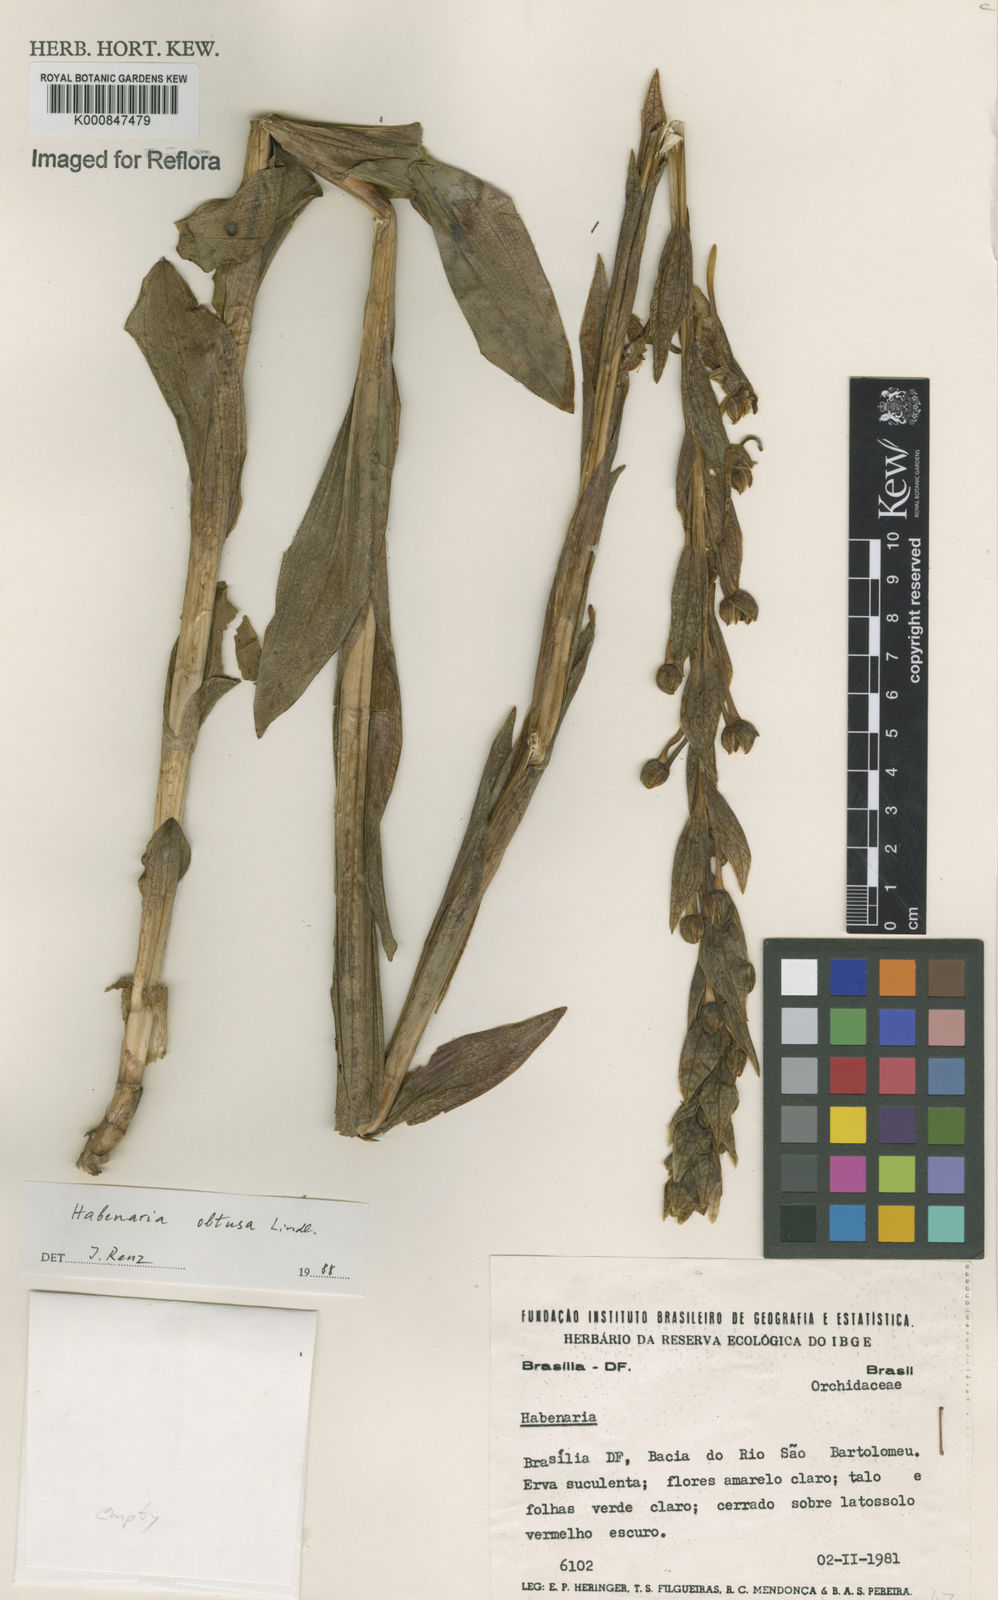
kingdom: Plantae
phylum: Tracheophyta
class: Liliopsida
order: Asparagales
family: Orchidaceae
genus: Habenaria
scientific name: Habenaria obtusa
